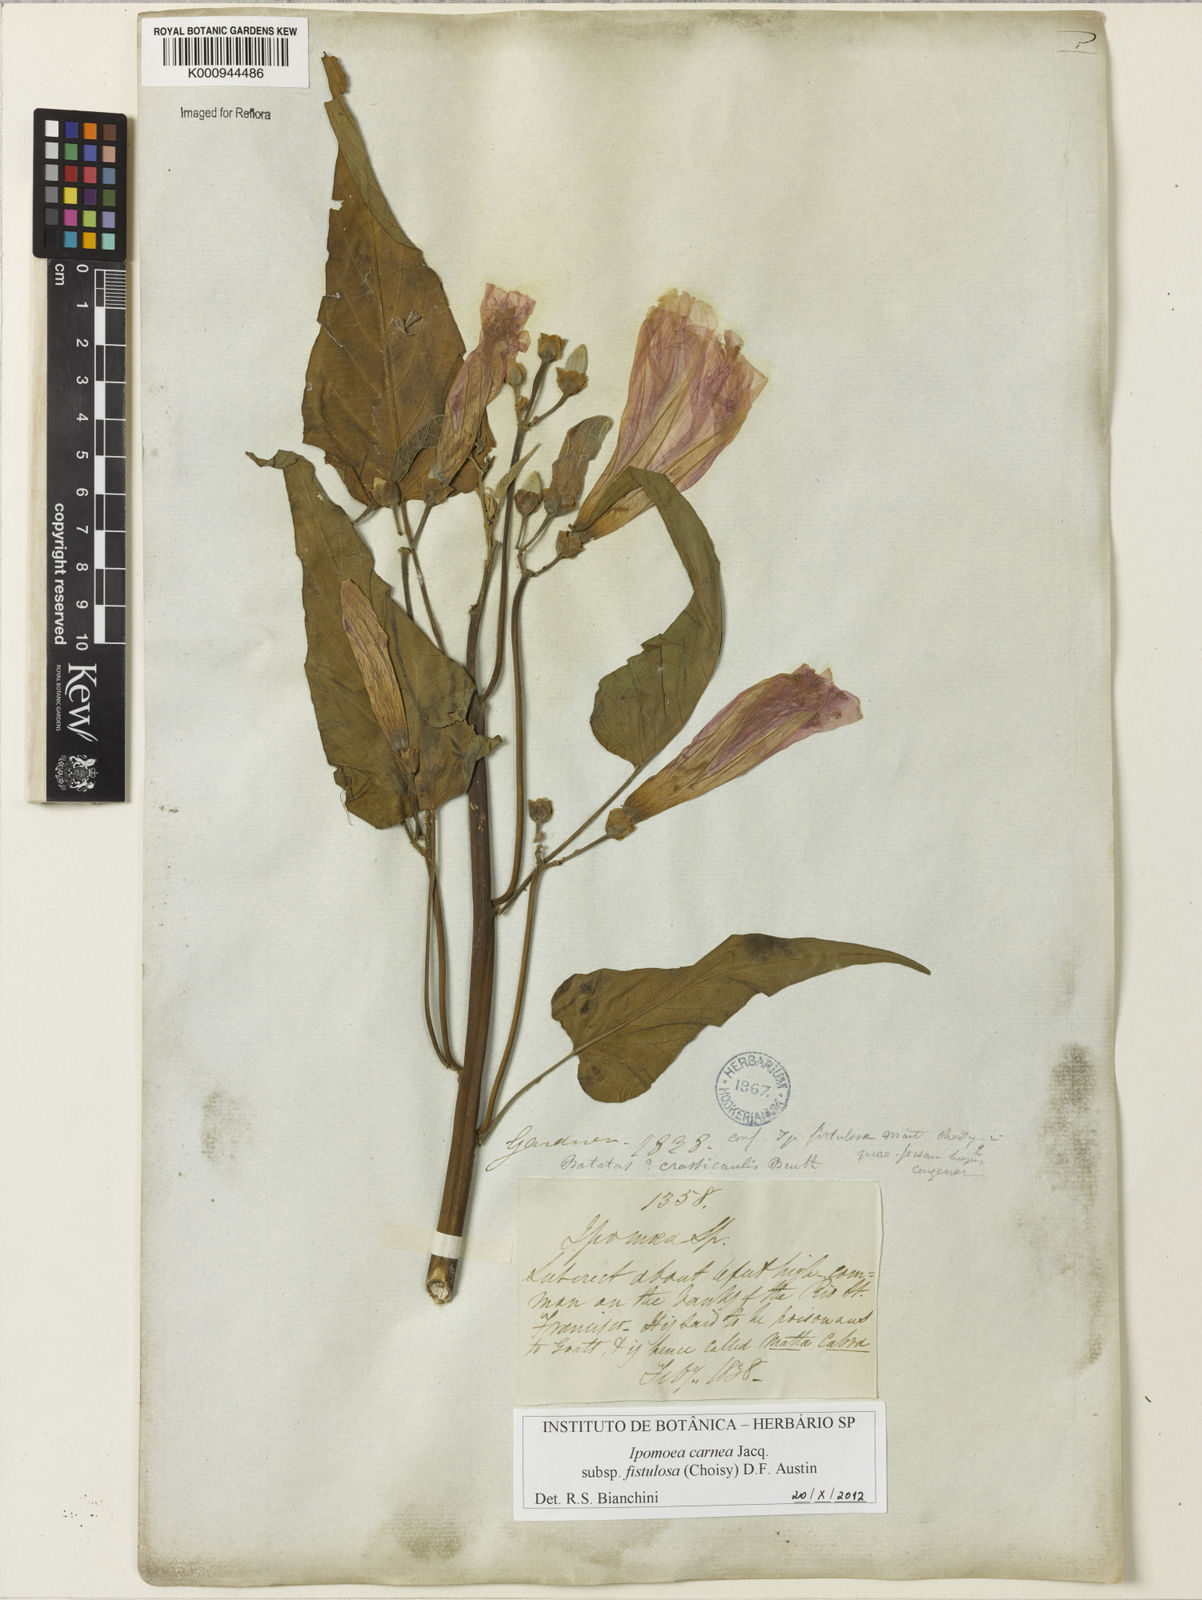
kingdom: Plantae
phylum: Tracheophyta
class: Magnoliopsida
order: Solanales
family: Convolvulaceae
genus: Ipomoea
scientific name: Ipomoea
